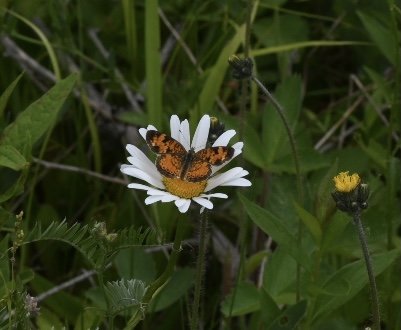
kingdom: Animalia
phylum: Arthropoda
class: Insecta
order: Lepidoptera
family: Nymphalidae
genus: Phyciodes
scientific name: Phyciodes tharos
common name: Northern Crescent
